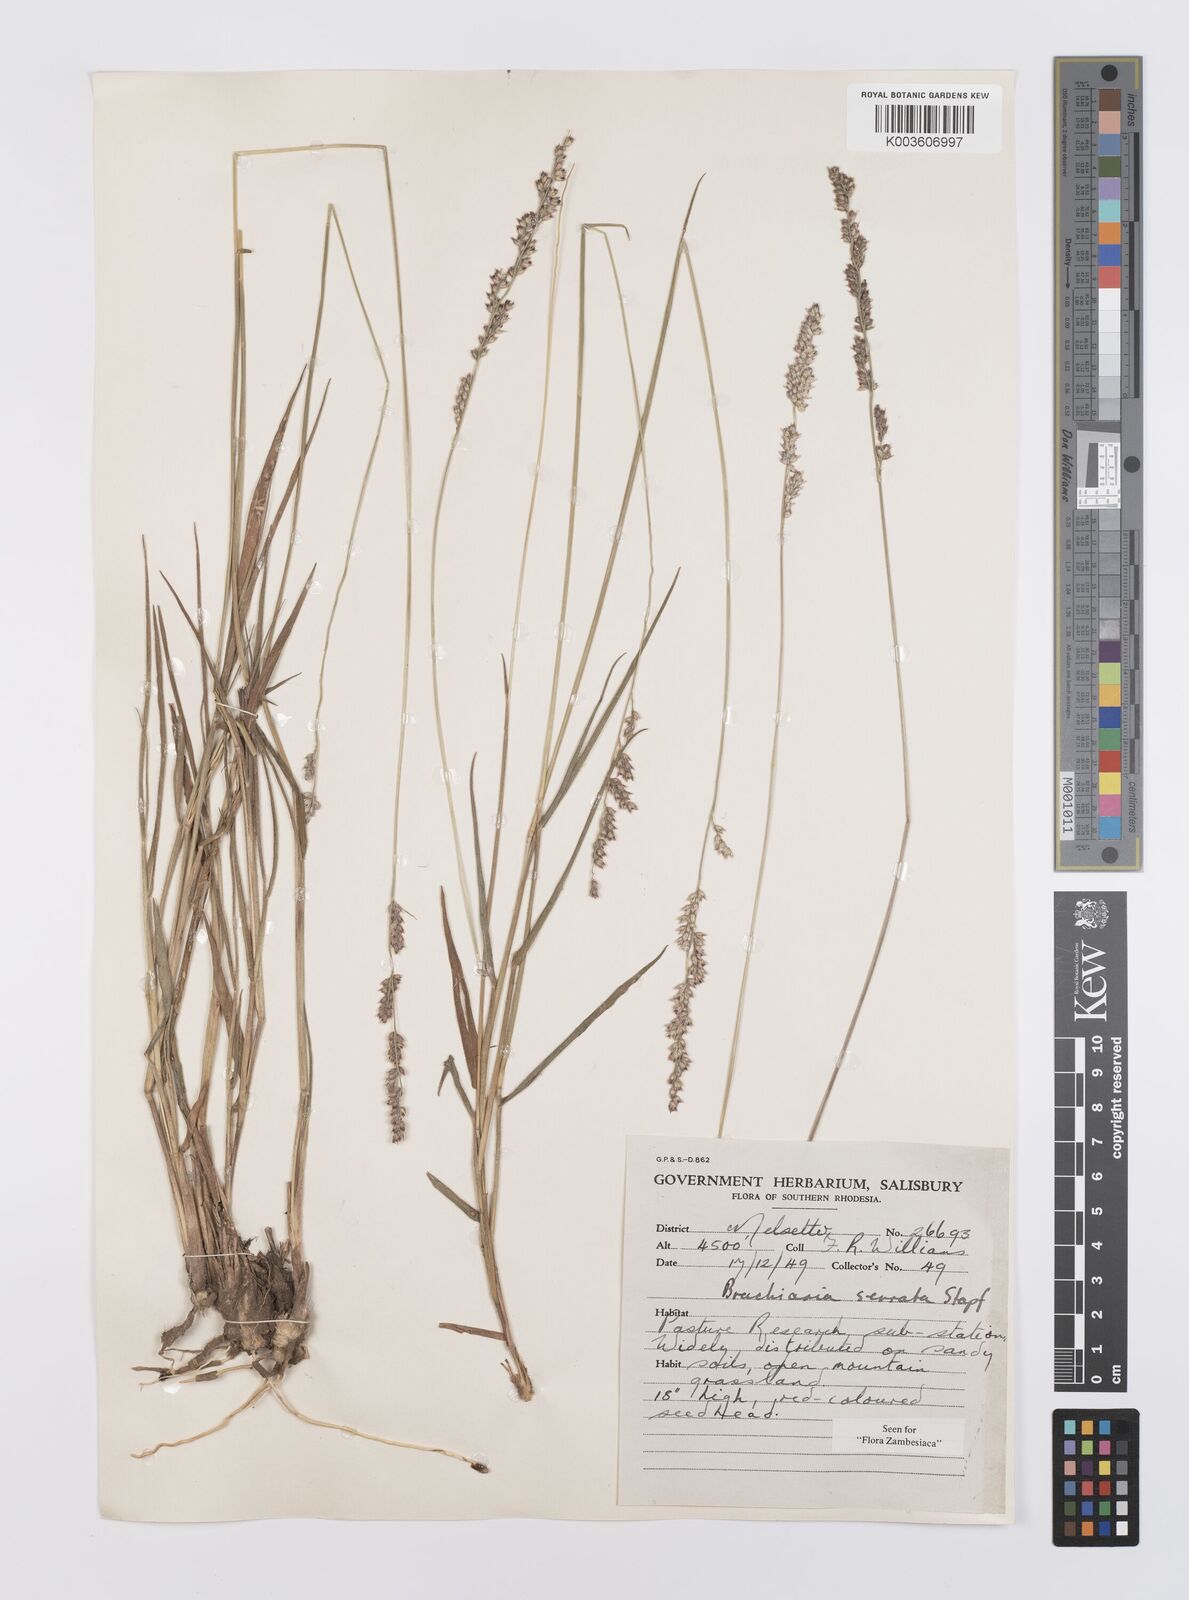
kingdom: Plantae
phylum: Tracheophyta
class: Liliopsida
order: Poales
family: Poaceae
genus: Urochloa
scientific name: Urochloa serrata
